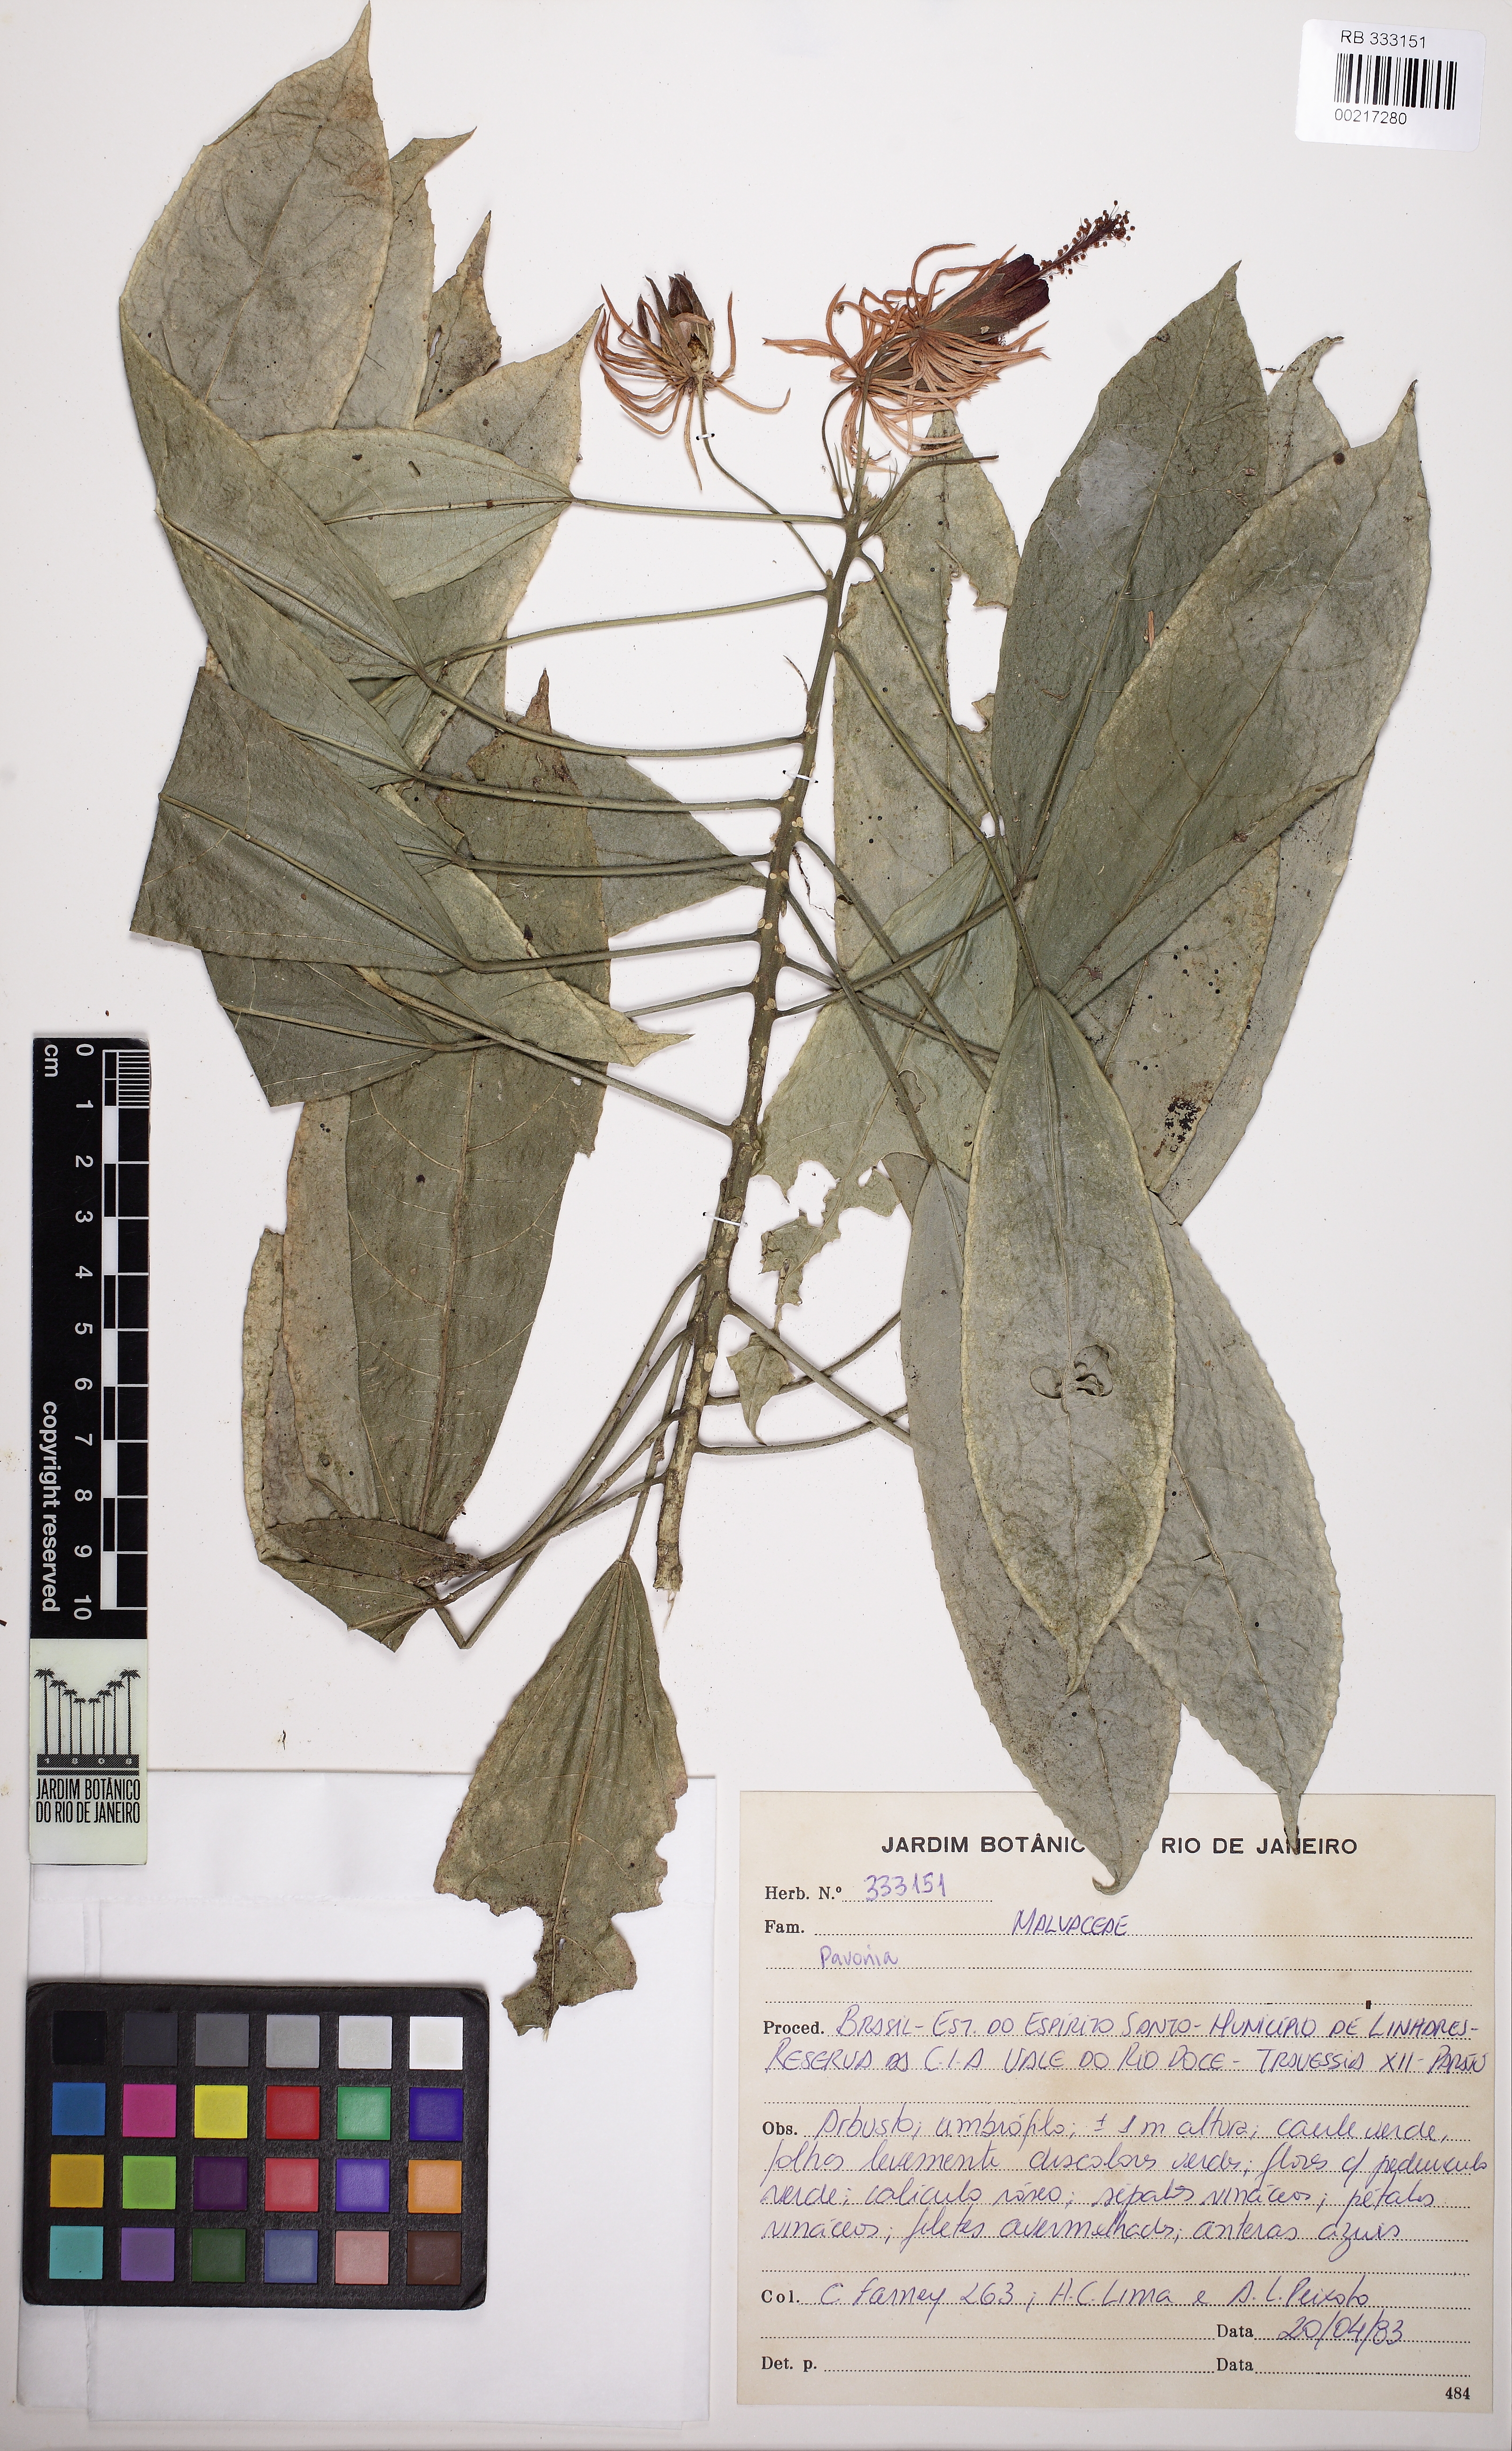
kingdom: Plantae
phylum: Tracheophyta
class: Magnoliopsida
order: Malvales
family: Malvaceae
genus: Pavonia
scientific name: Pavonia multiflora
